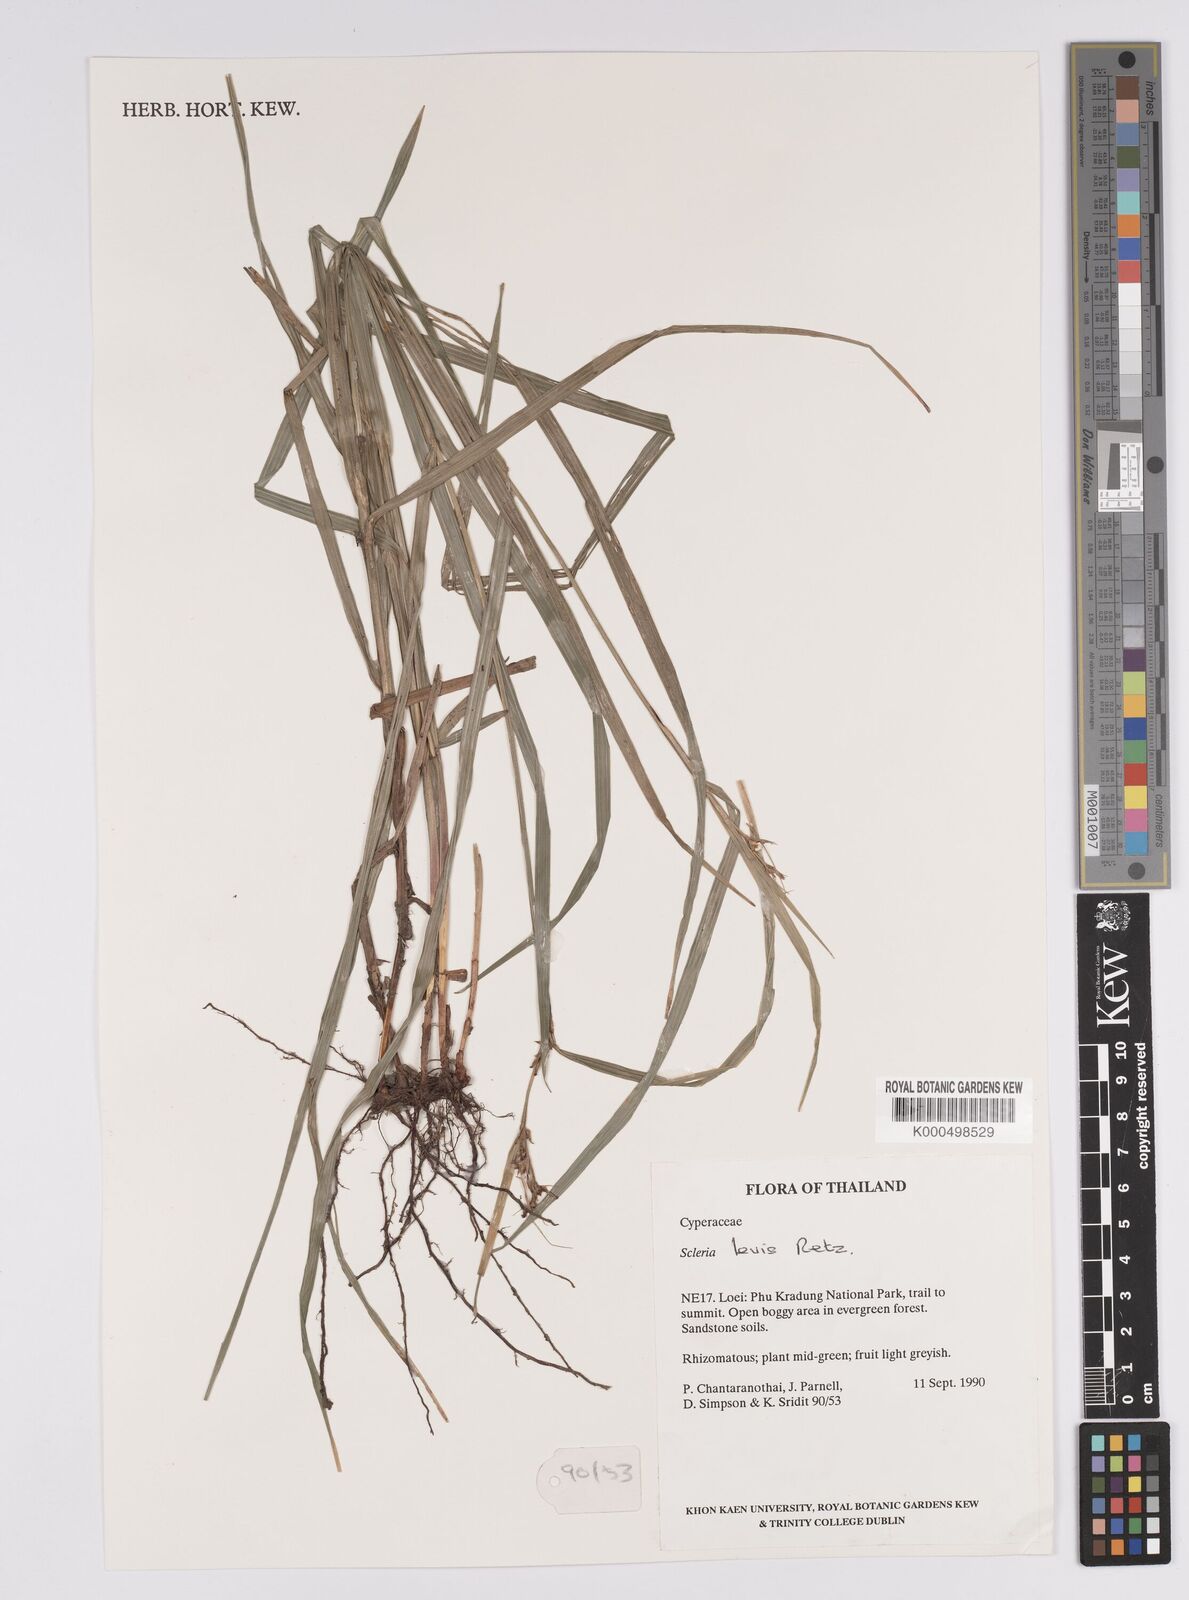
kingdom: Plantae
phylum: Tracheophyta
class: Liliopsida
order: Poales
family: Cyperaceae
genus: Scleria
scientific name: Scleria levis
